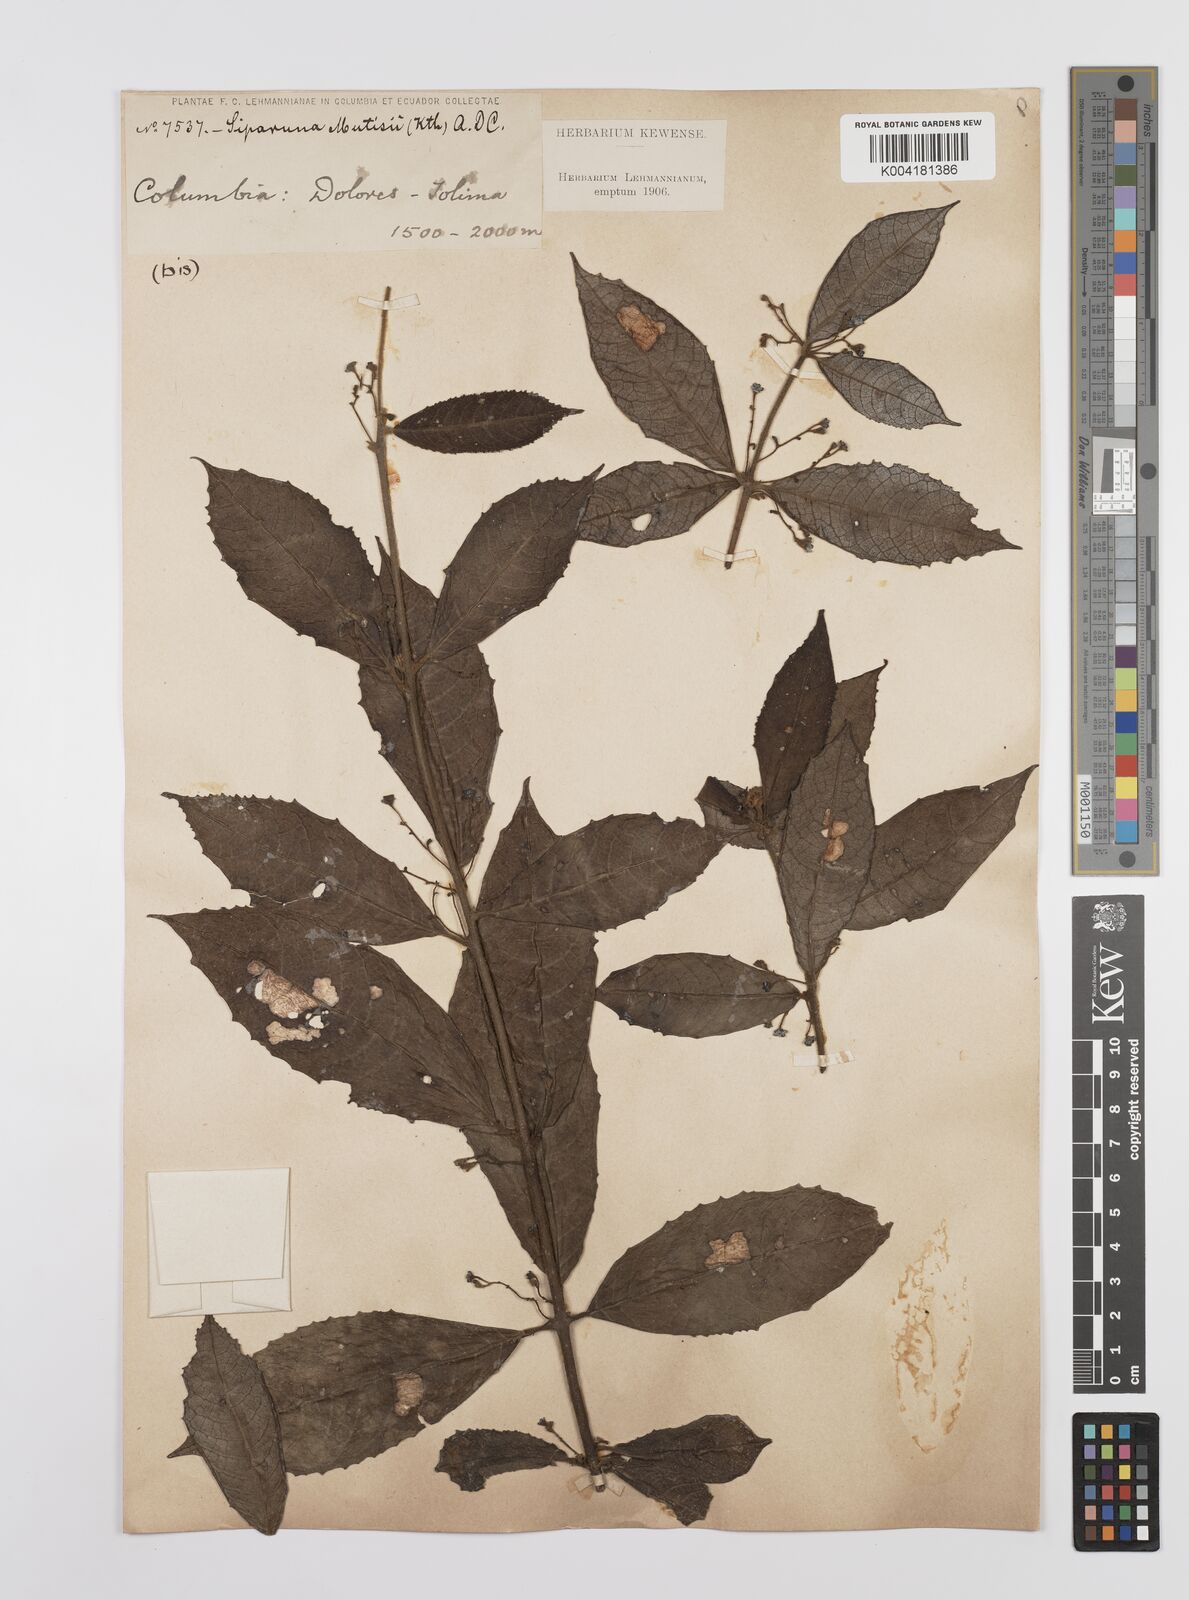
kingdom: Plantae
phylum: Tracheophyta
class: Magnoliopsida
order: Laurales
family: Siparunaceae
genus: Siparuna
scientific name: Siparuna mutisii
